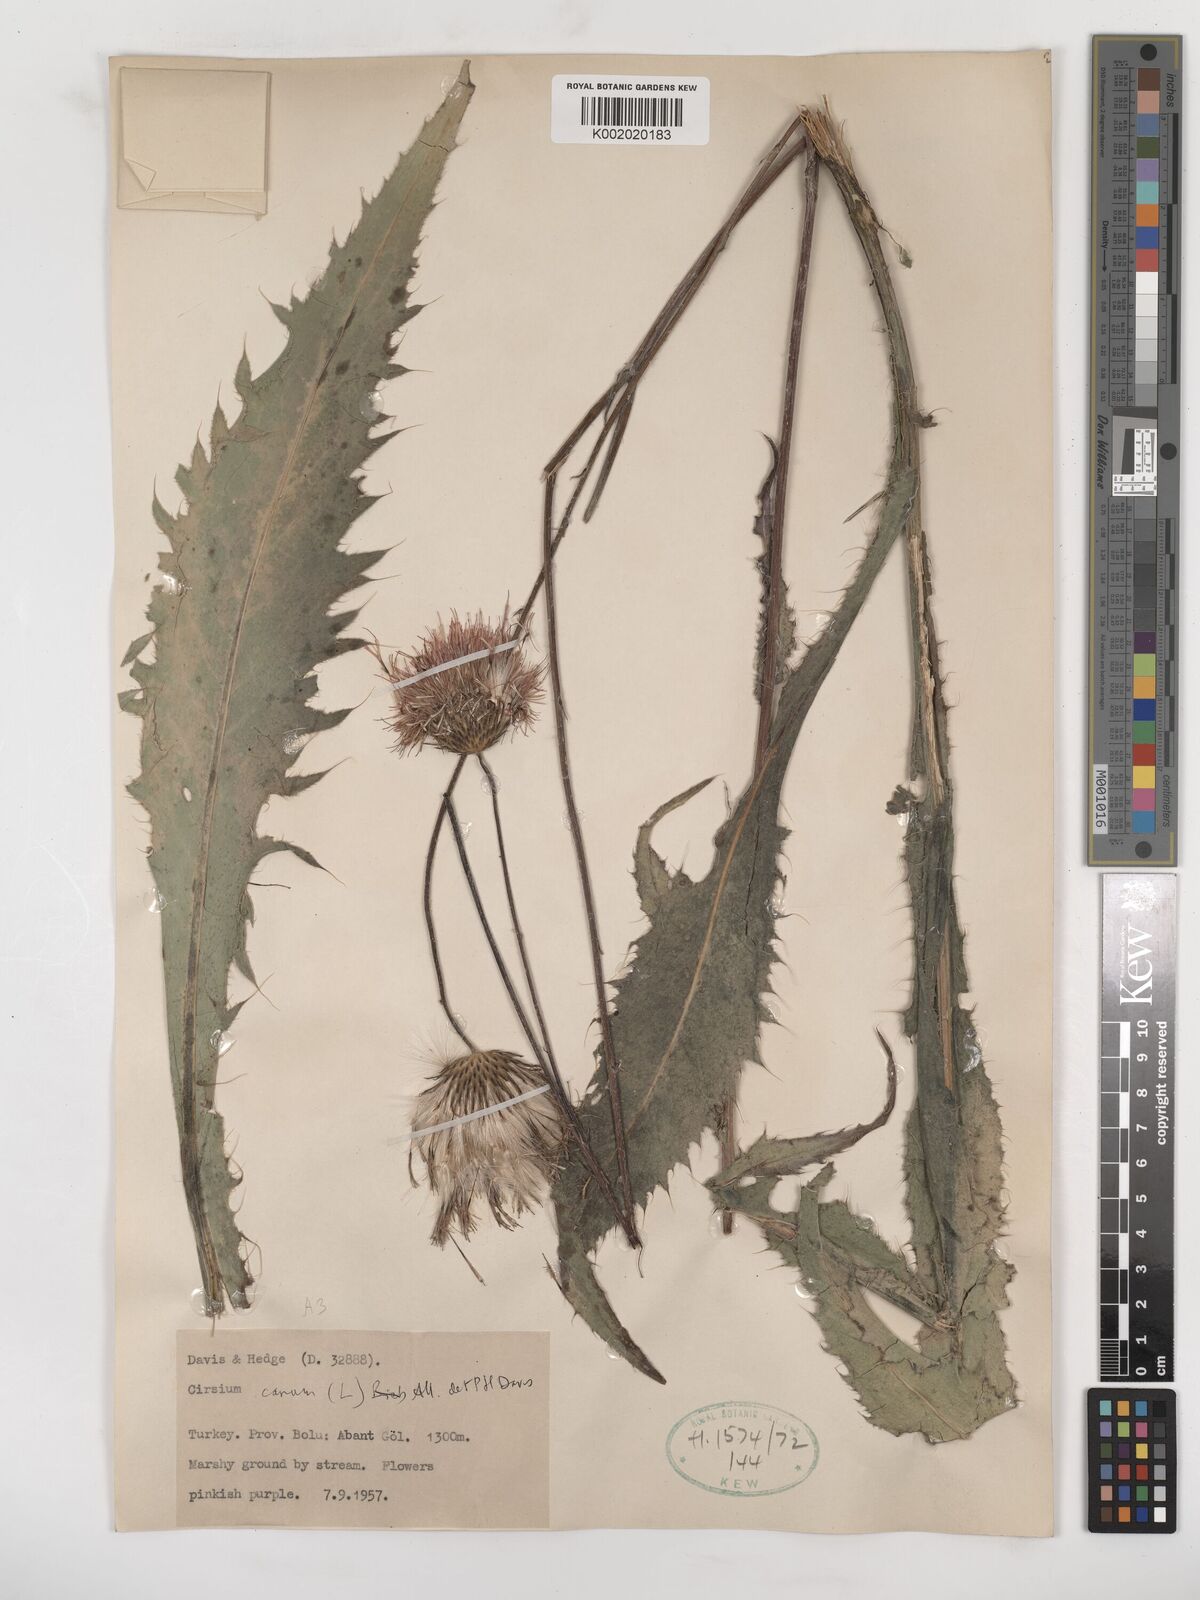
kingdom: Plantae
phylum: Tracheophyta
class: Magnoliopsida
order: Asterales
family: Asteraceae
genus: Cirsium
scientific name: Cirsium canum
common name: Queen anne's thistle
